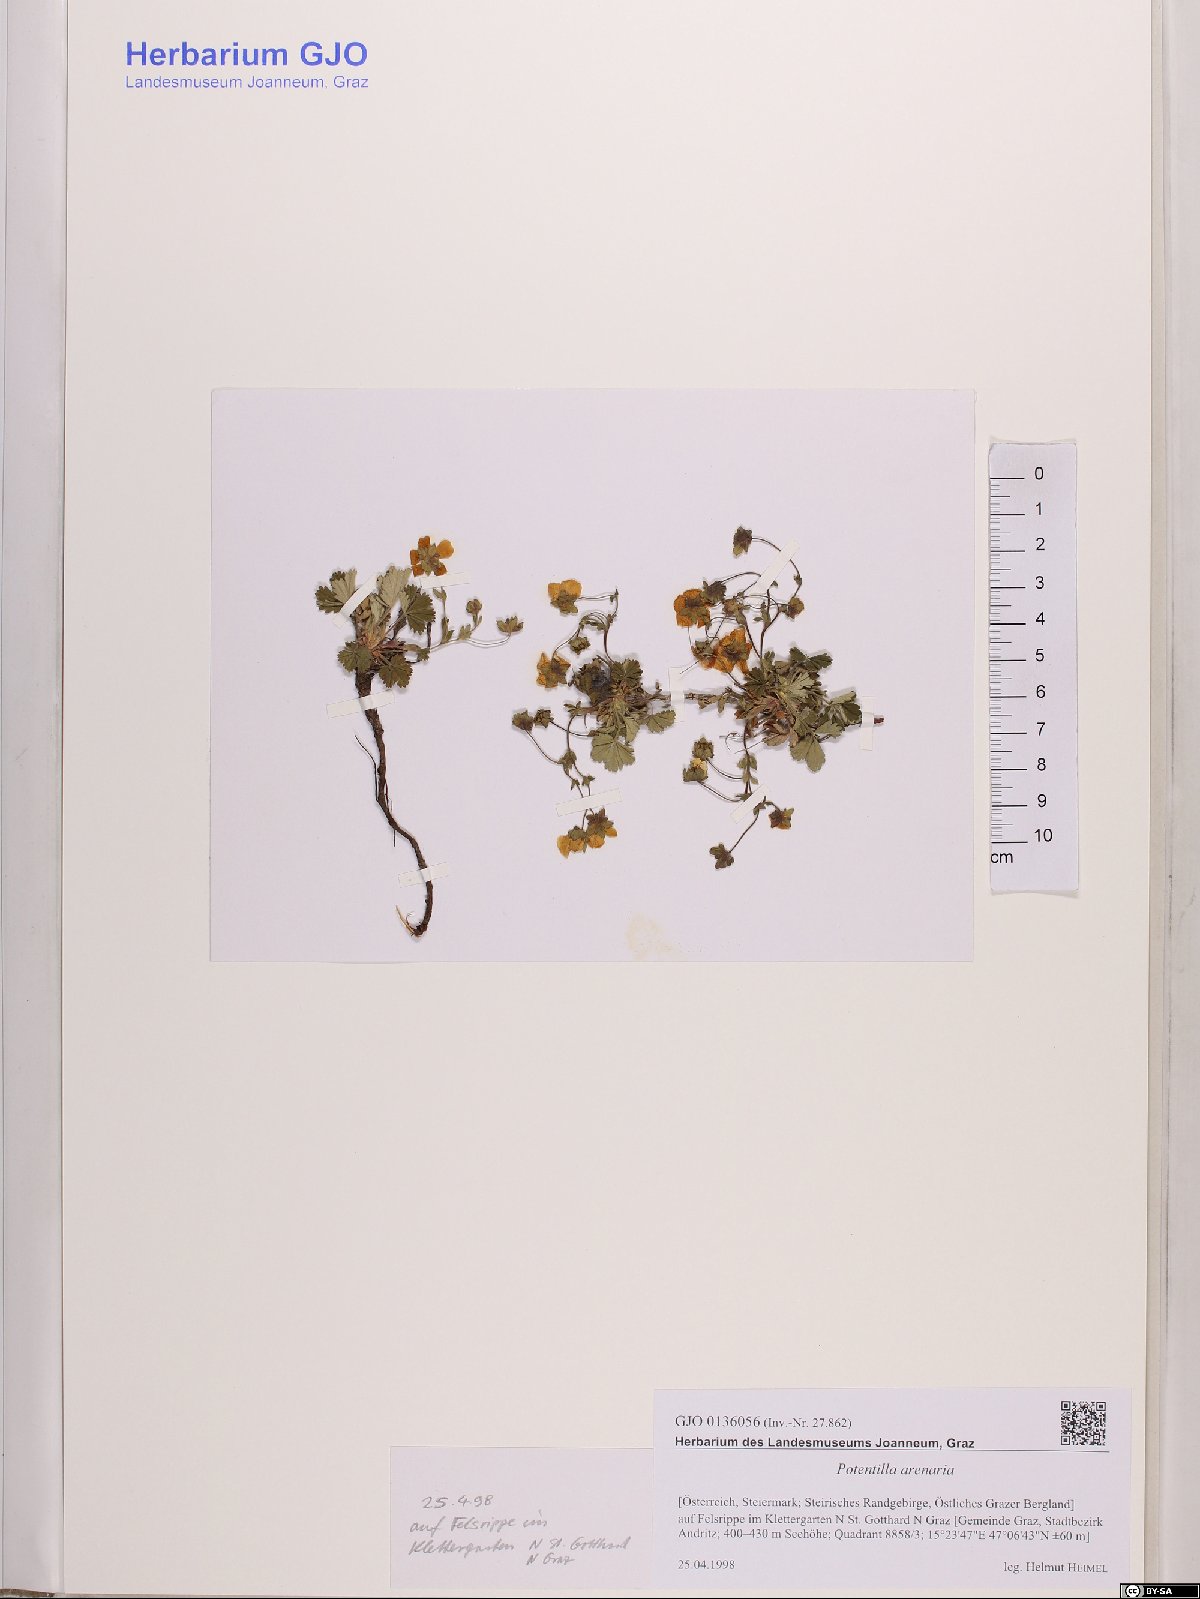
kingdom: Plantae
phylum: Tracheophyta
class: Magnoliopsida
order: Rosales
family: Rosaceae
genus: Potentilla
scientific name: Potentilla cinerea
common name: Ashy cinquefoil
